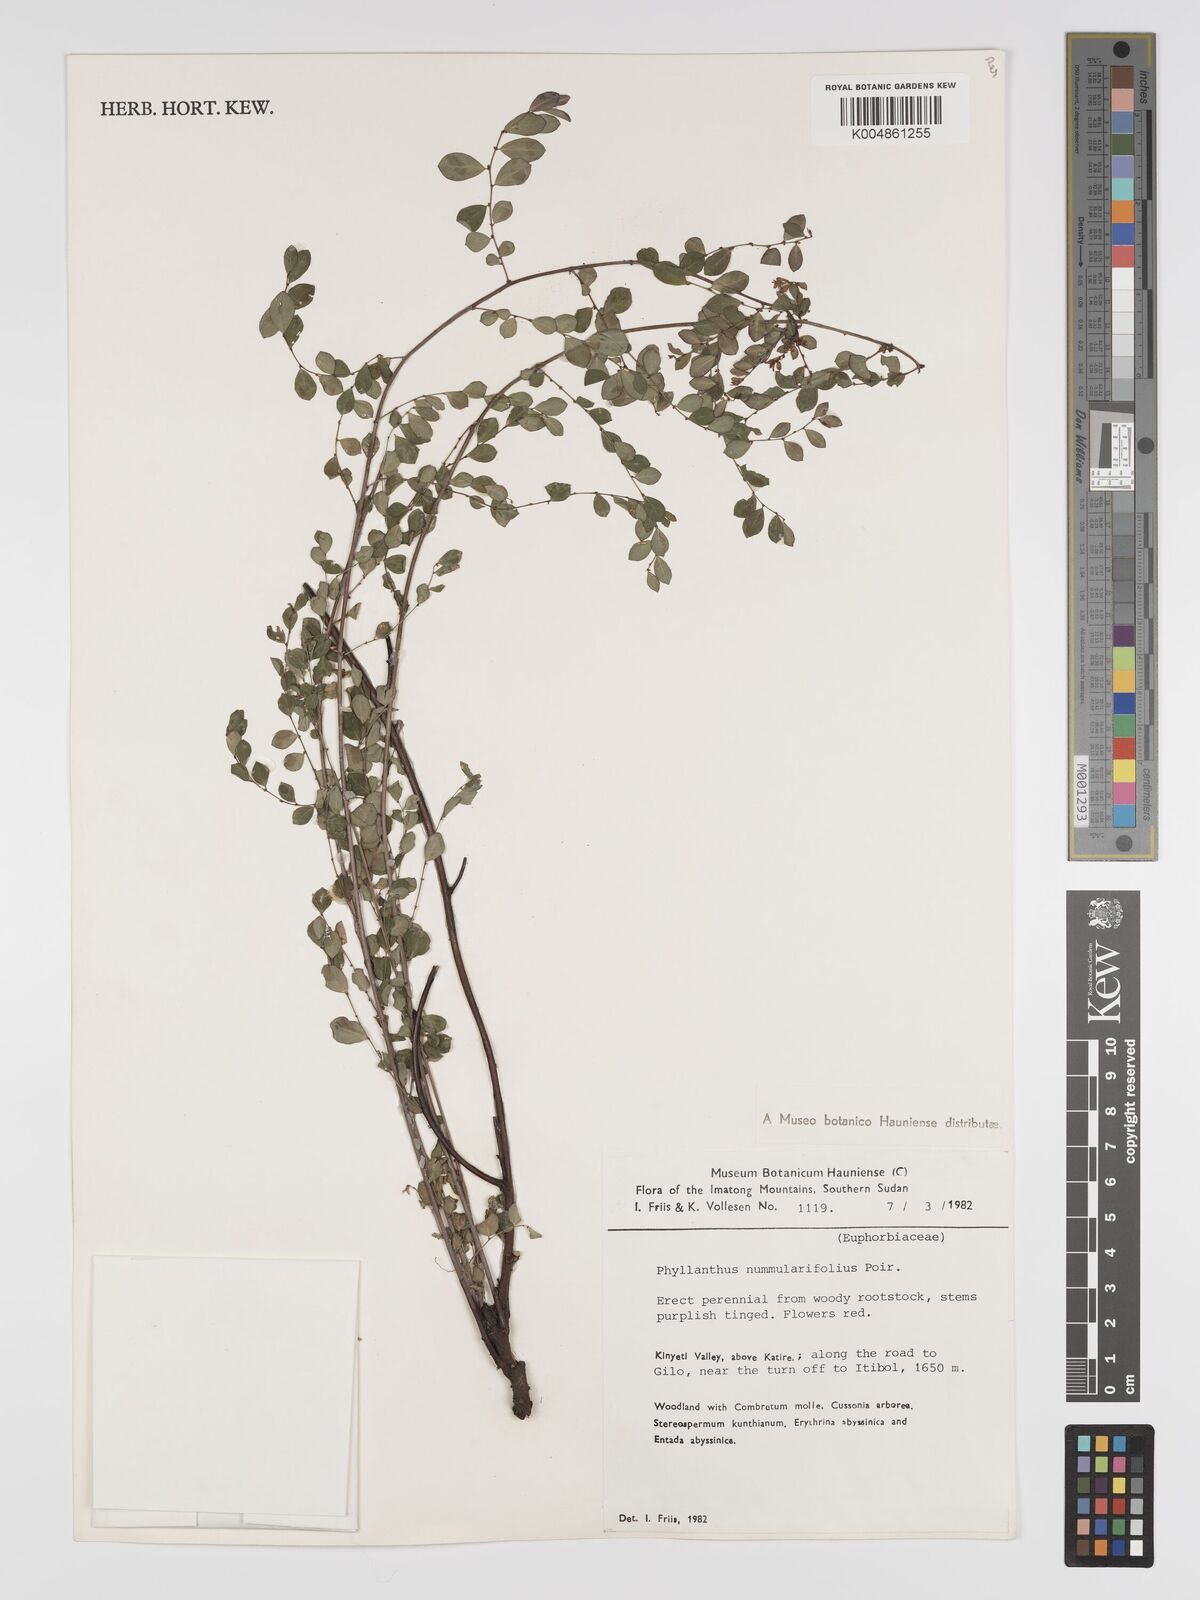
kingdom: Plantae
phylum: Tracheophyta
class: Magnoliopsida
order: Malpighiales
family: Phyllanthaceae
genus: Phyllanthus
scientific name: Phyllanthus nummulariifolius
